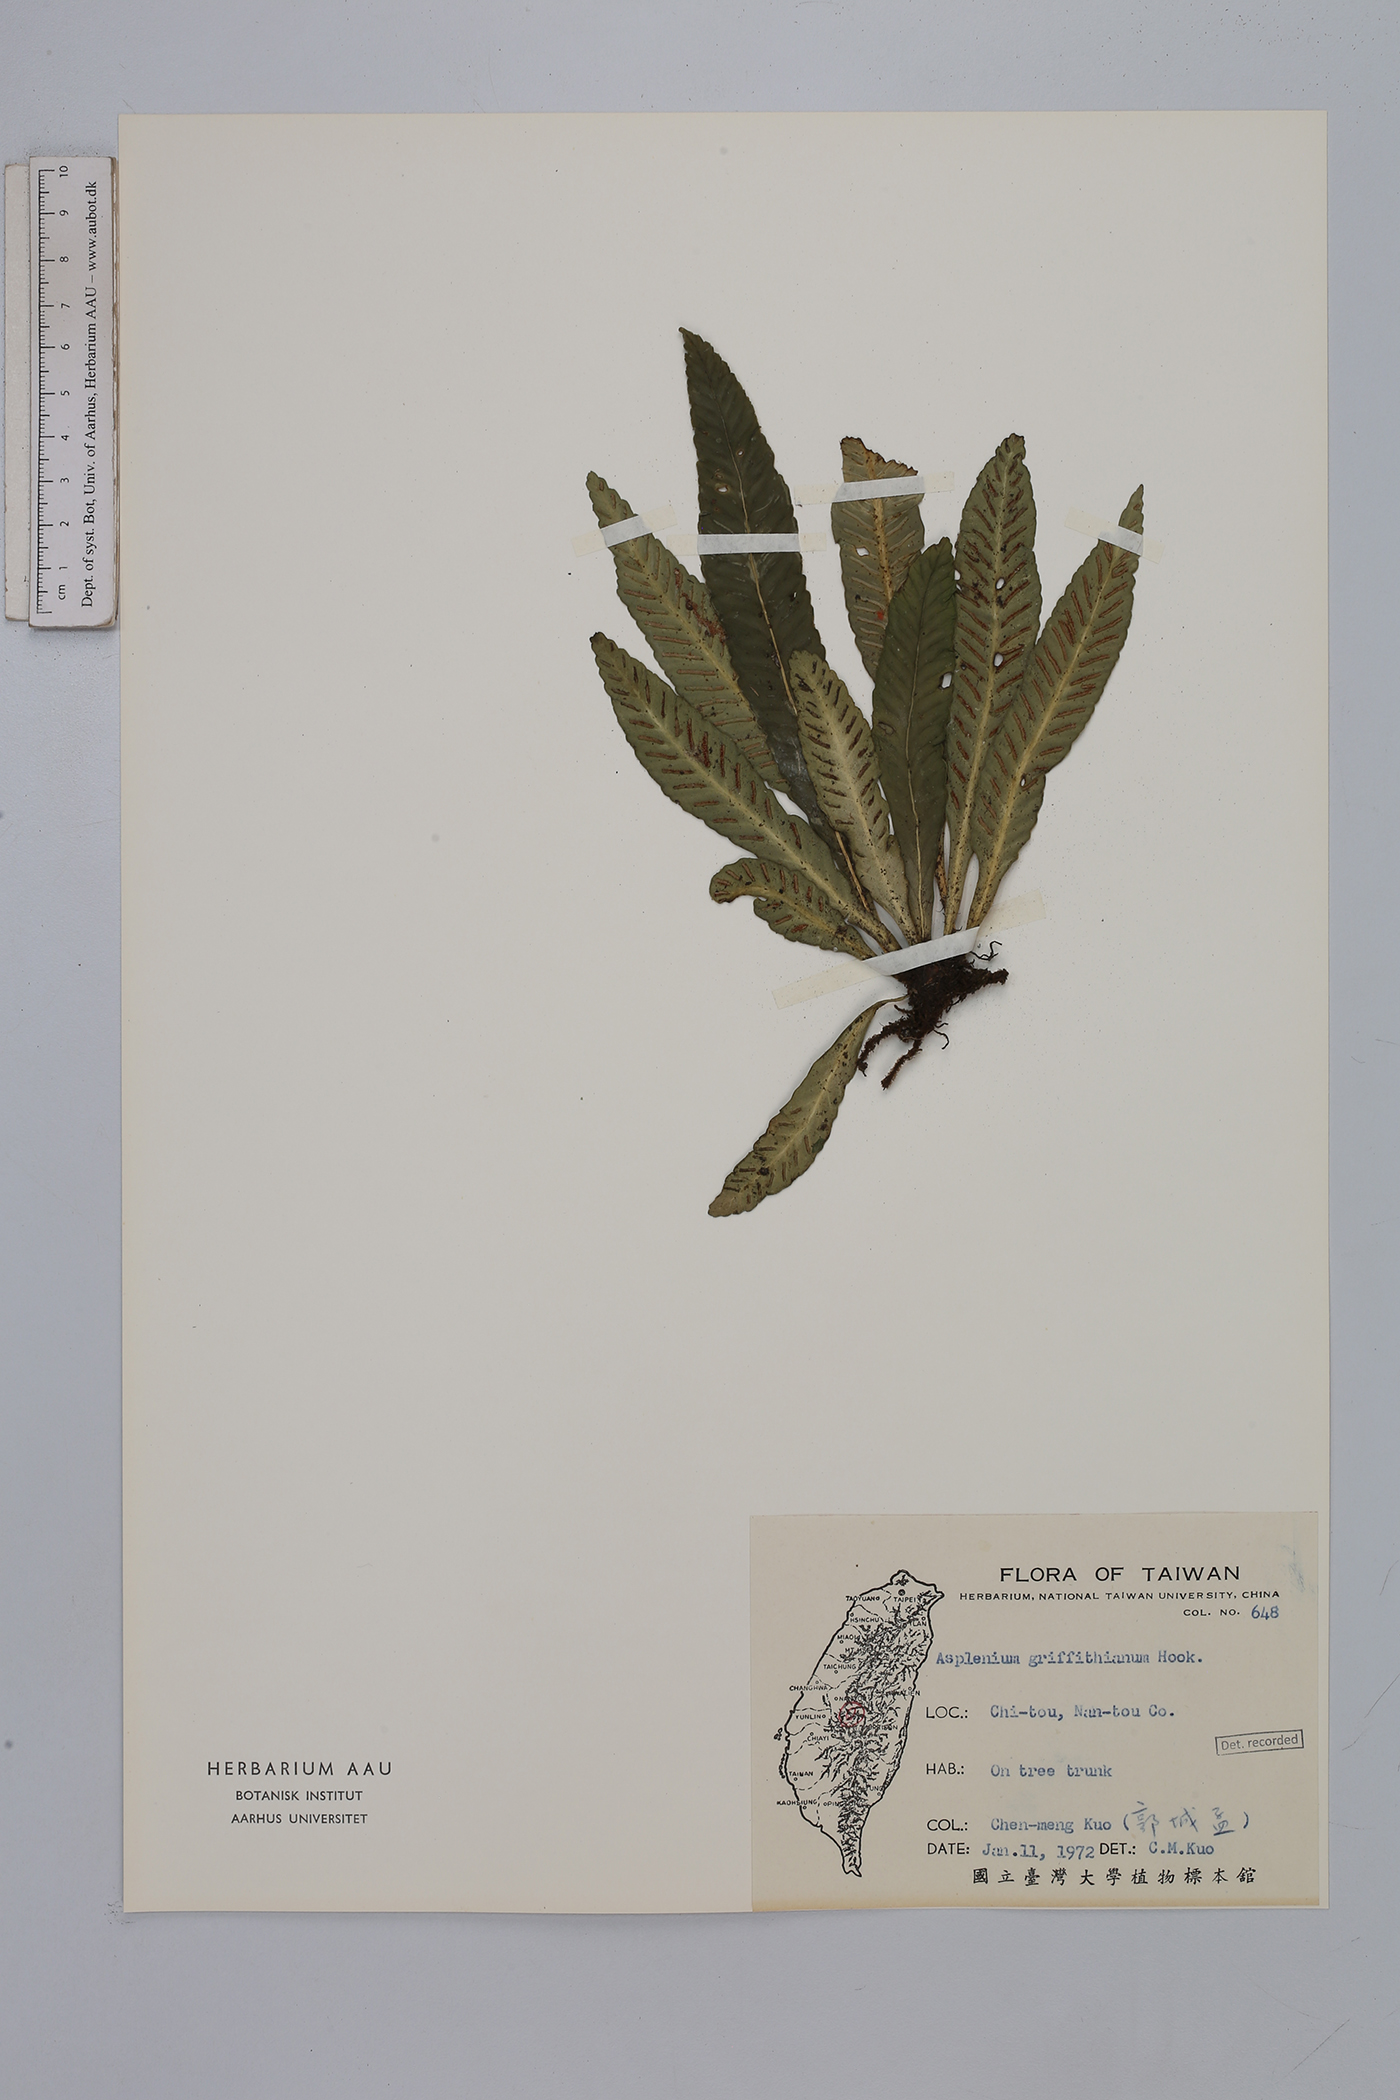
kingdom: Plantae
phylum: Tracheophyta
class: Polypodiopsida
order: Polypodiales
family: Aspleniaceae
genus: Asplenium
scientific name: Asplenium griffithianum
